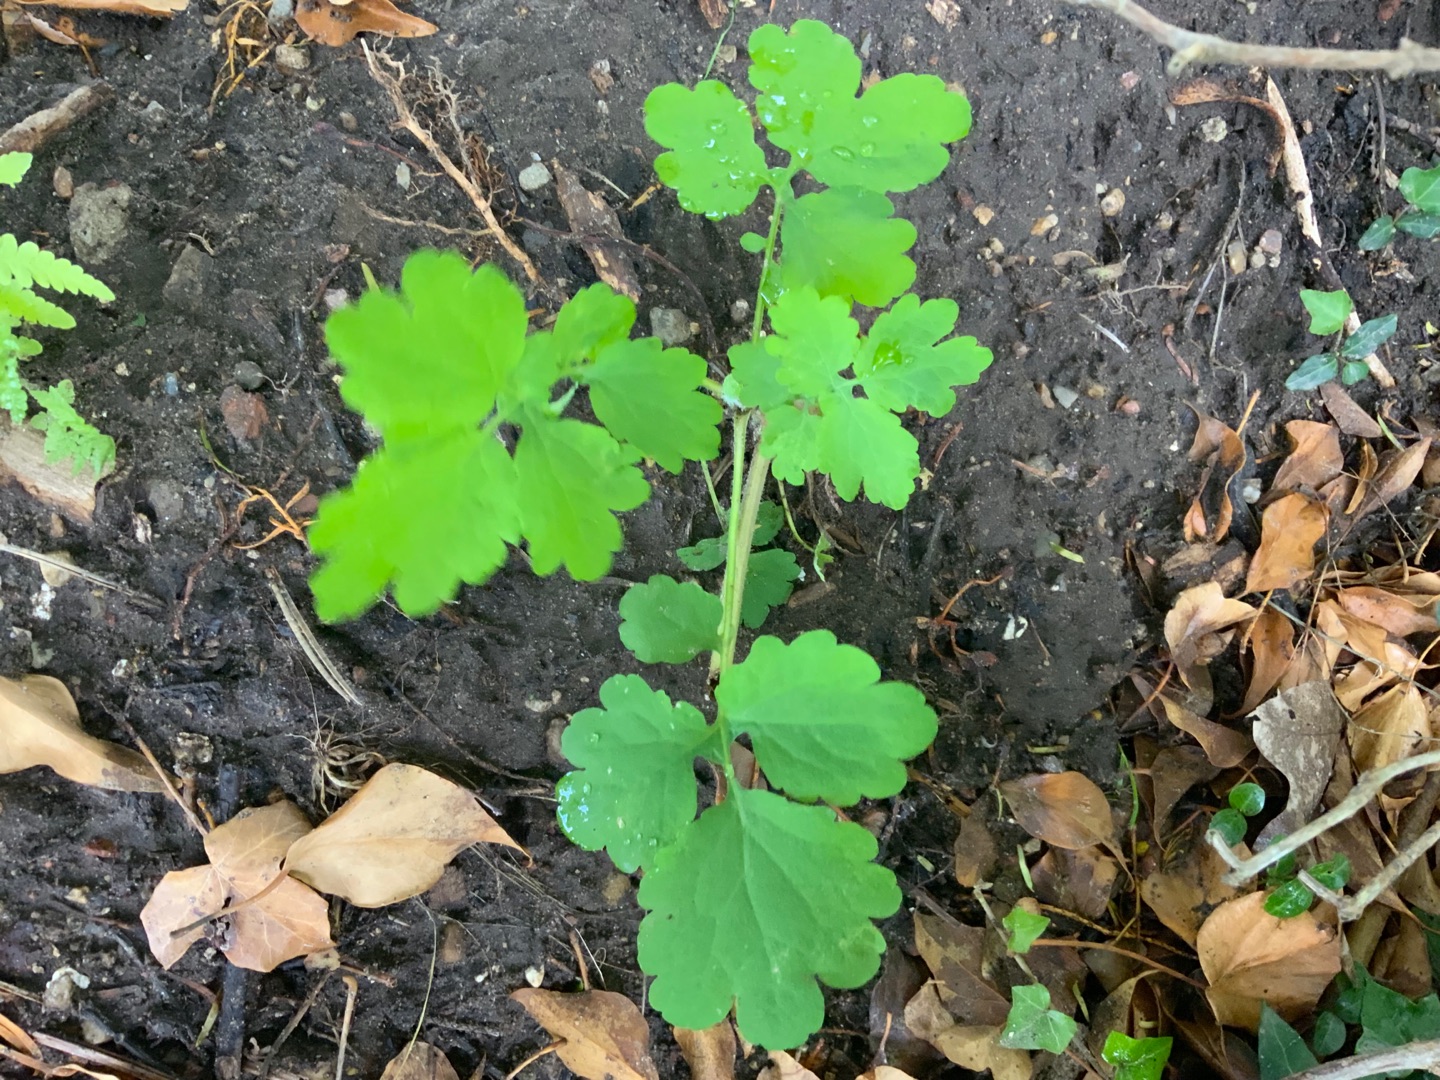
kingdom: Plantae
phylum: Tracheophyta
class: Magnoliopsida
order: Ranunculales
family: Papaveraceae
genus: Chelidonium
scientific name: Chelidonium majus
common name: Svaleurt
